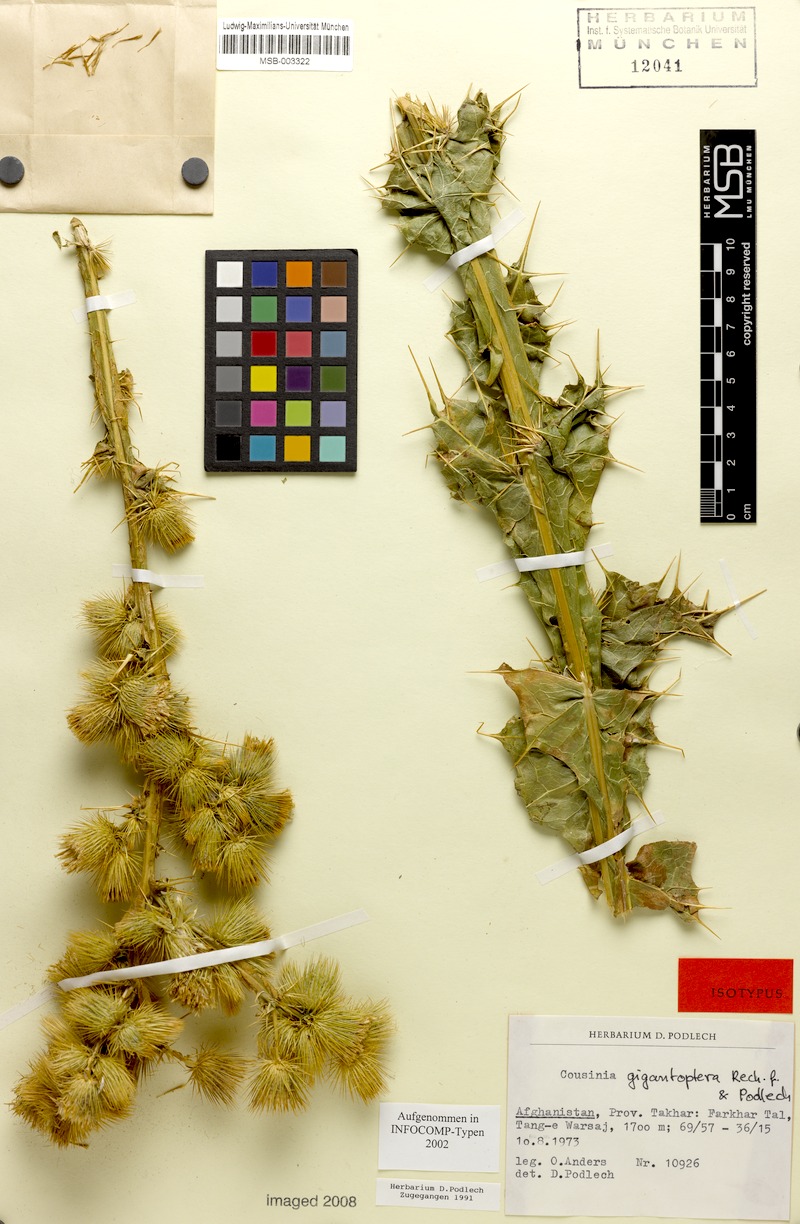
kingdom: Plantae
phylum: Tracheophyta
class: Magnoliopsida
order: Asterales
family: Asteraceae
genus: Cousinia
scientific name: Cousinia gigantoptera
